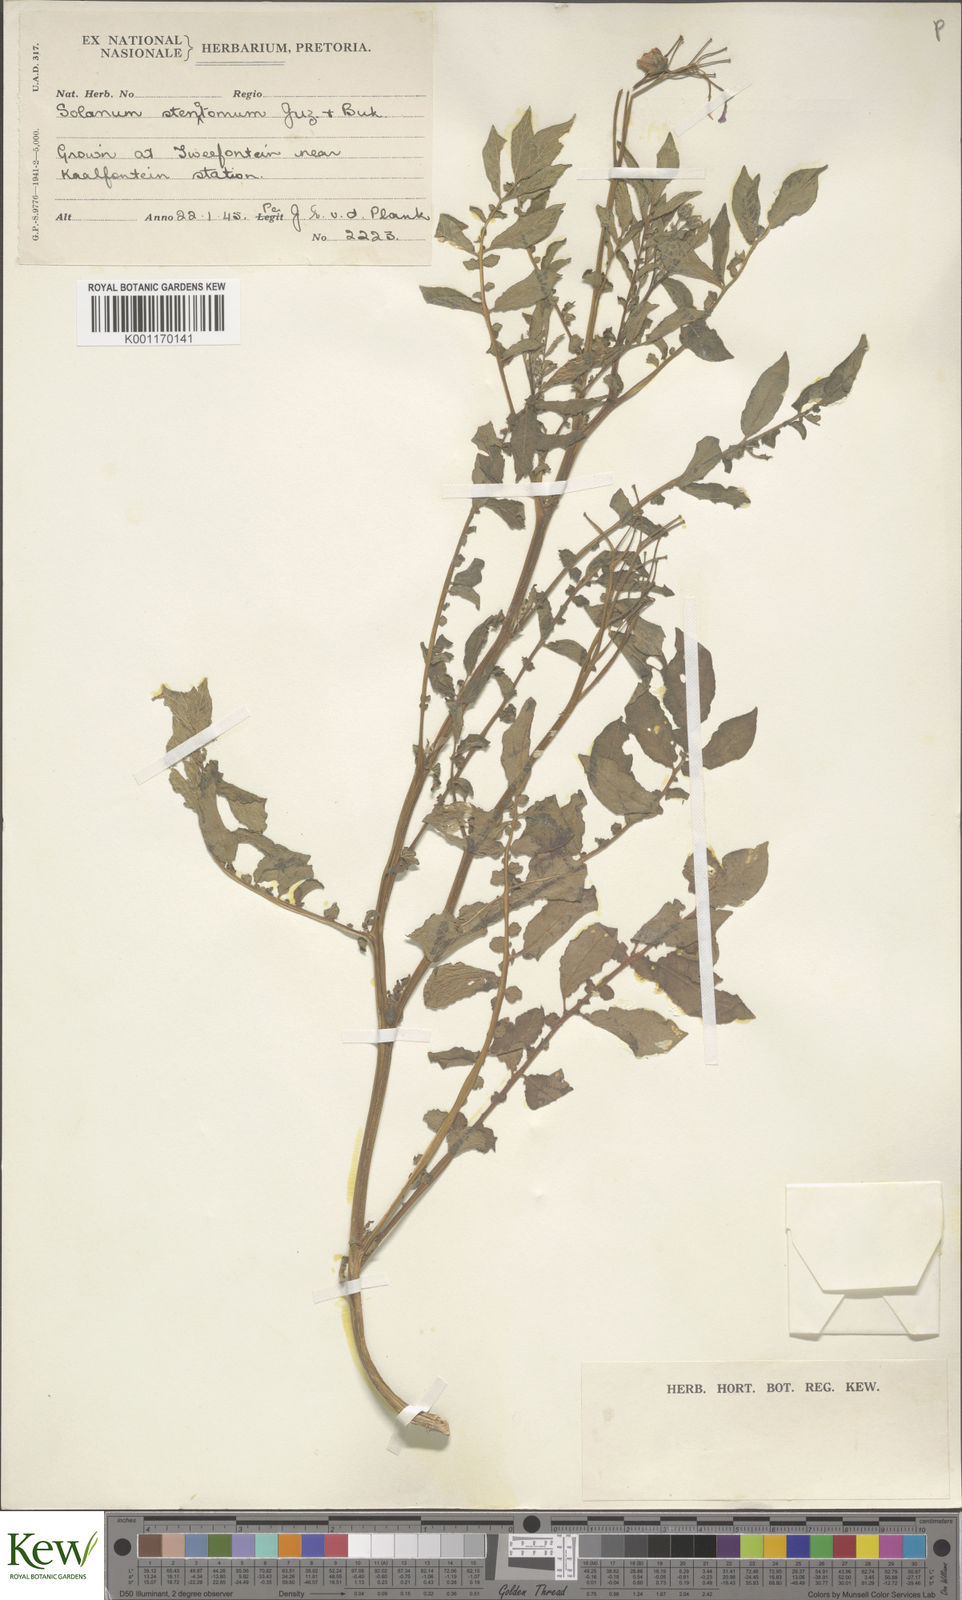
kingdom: Plantae
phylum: Tracheophyta
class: Magnoliopsida
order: Solanales
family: Solanaceae
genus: Solanum
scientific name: Solanum tuberosum
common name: Potato
